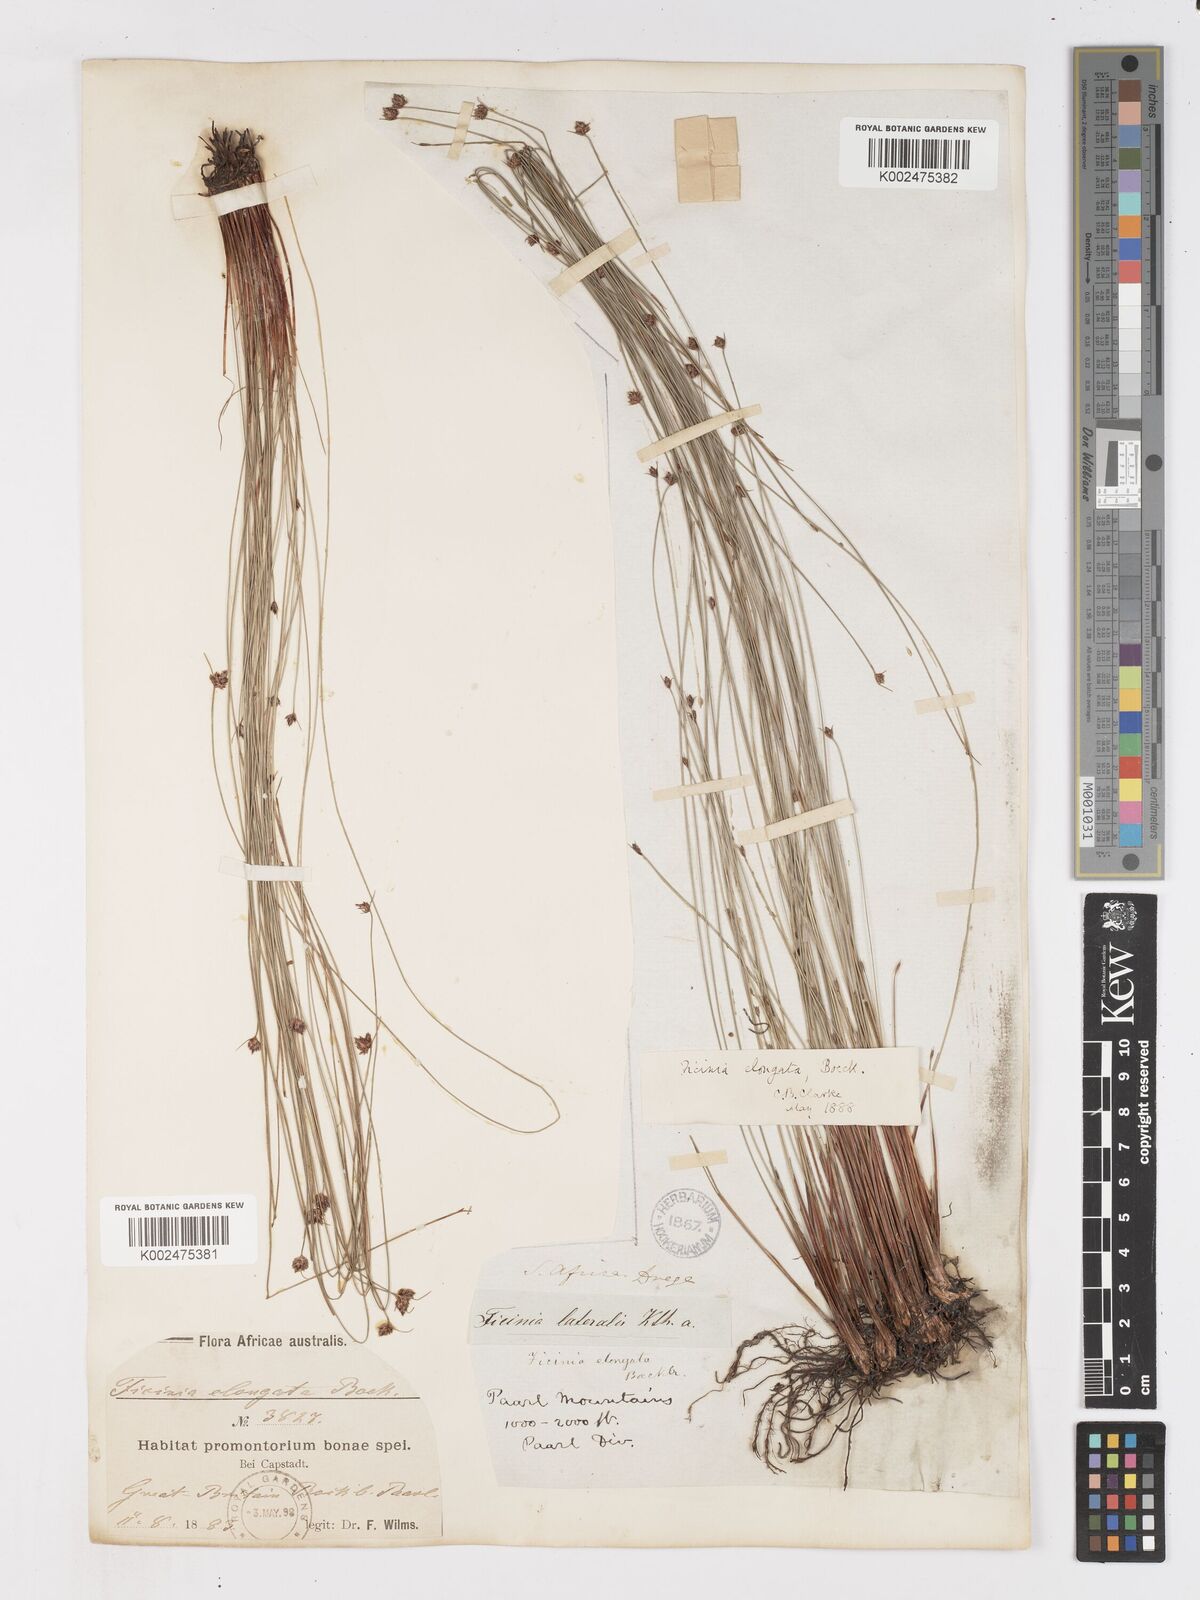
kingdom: Plantae
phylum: Tracheophyta
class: Liliopsida
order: Poales
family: Cyperaceae
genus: Ficinia
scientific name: Ficinia acuminata
